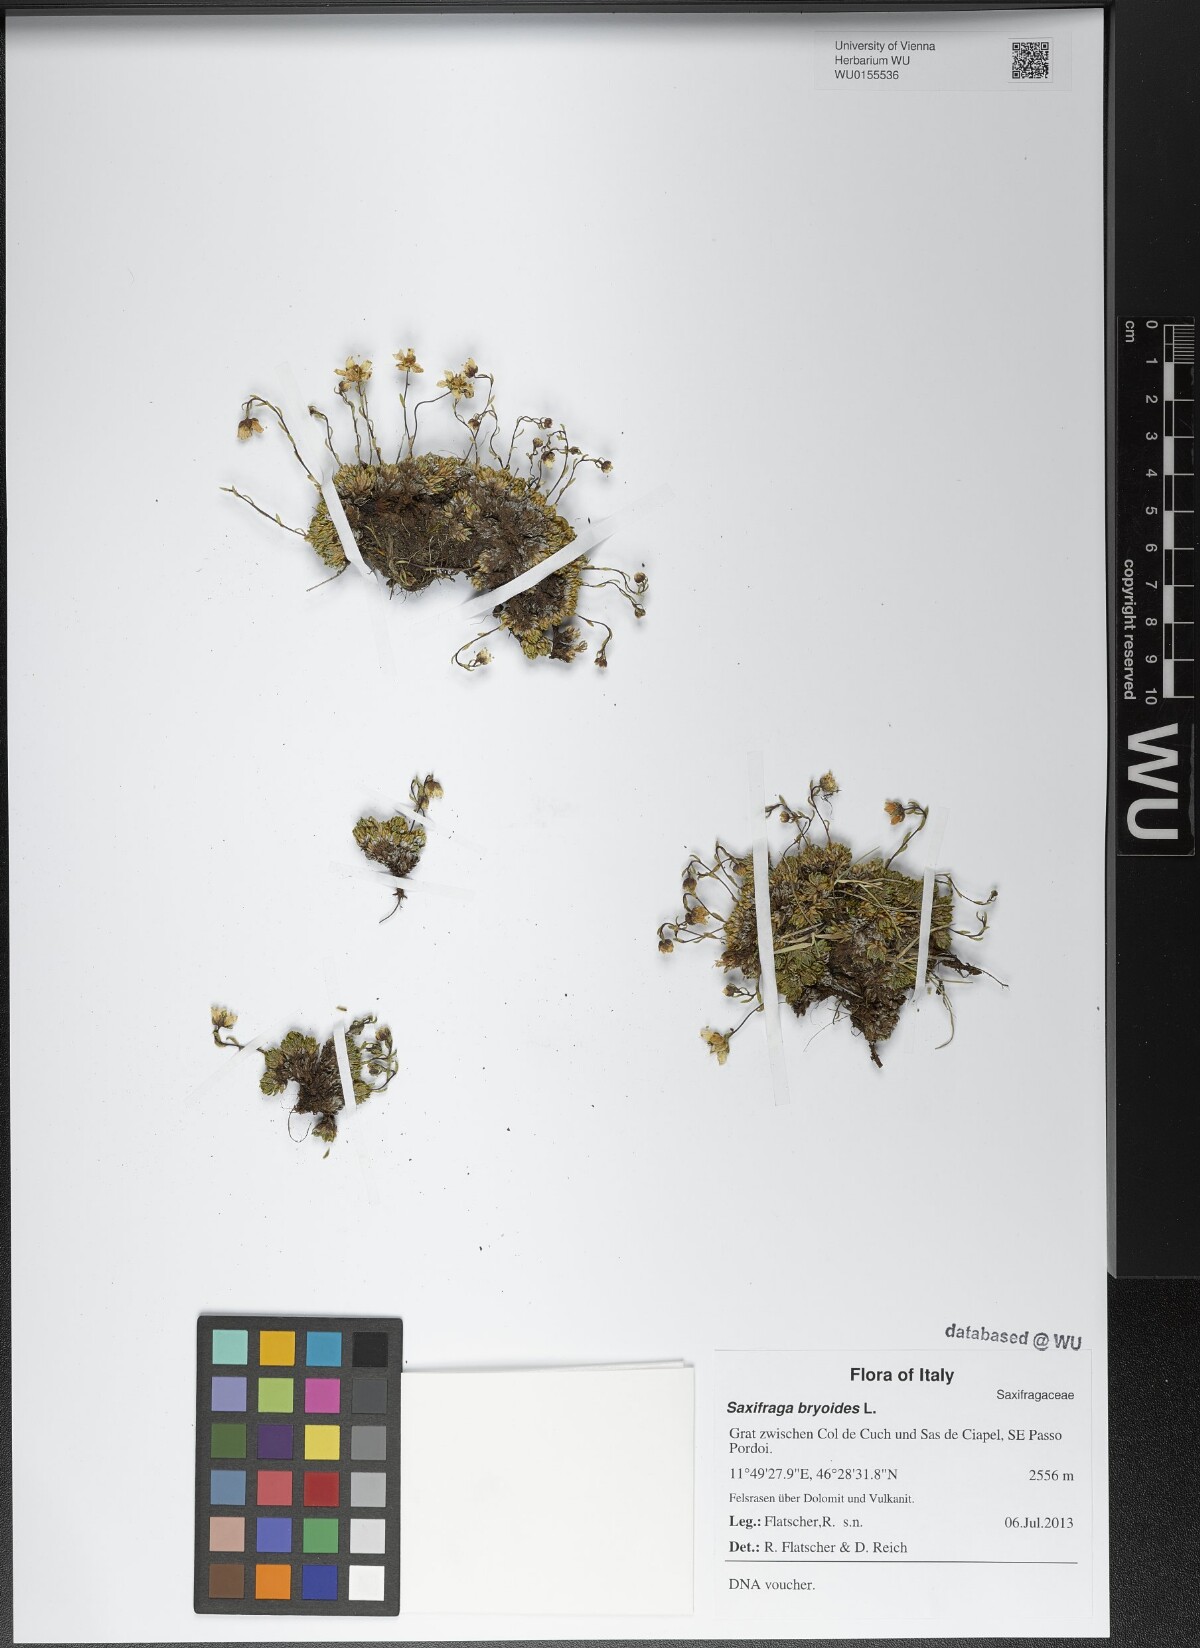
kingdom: Plantae
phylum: Tracheophyta
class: Magnoliopsida
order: Saxifragales
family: Saxifragaceae
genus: Saxifraga
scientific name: Saxifraga bryoides
